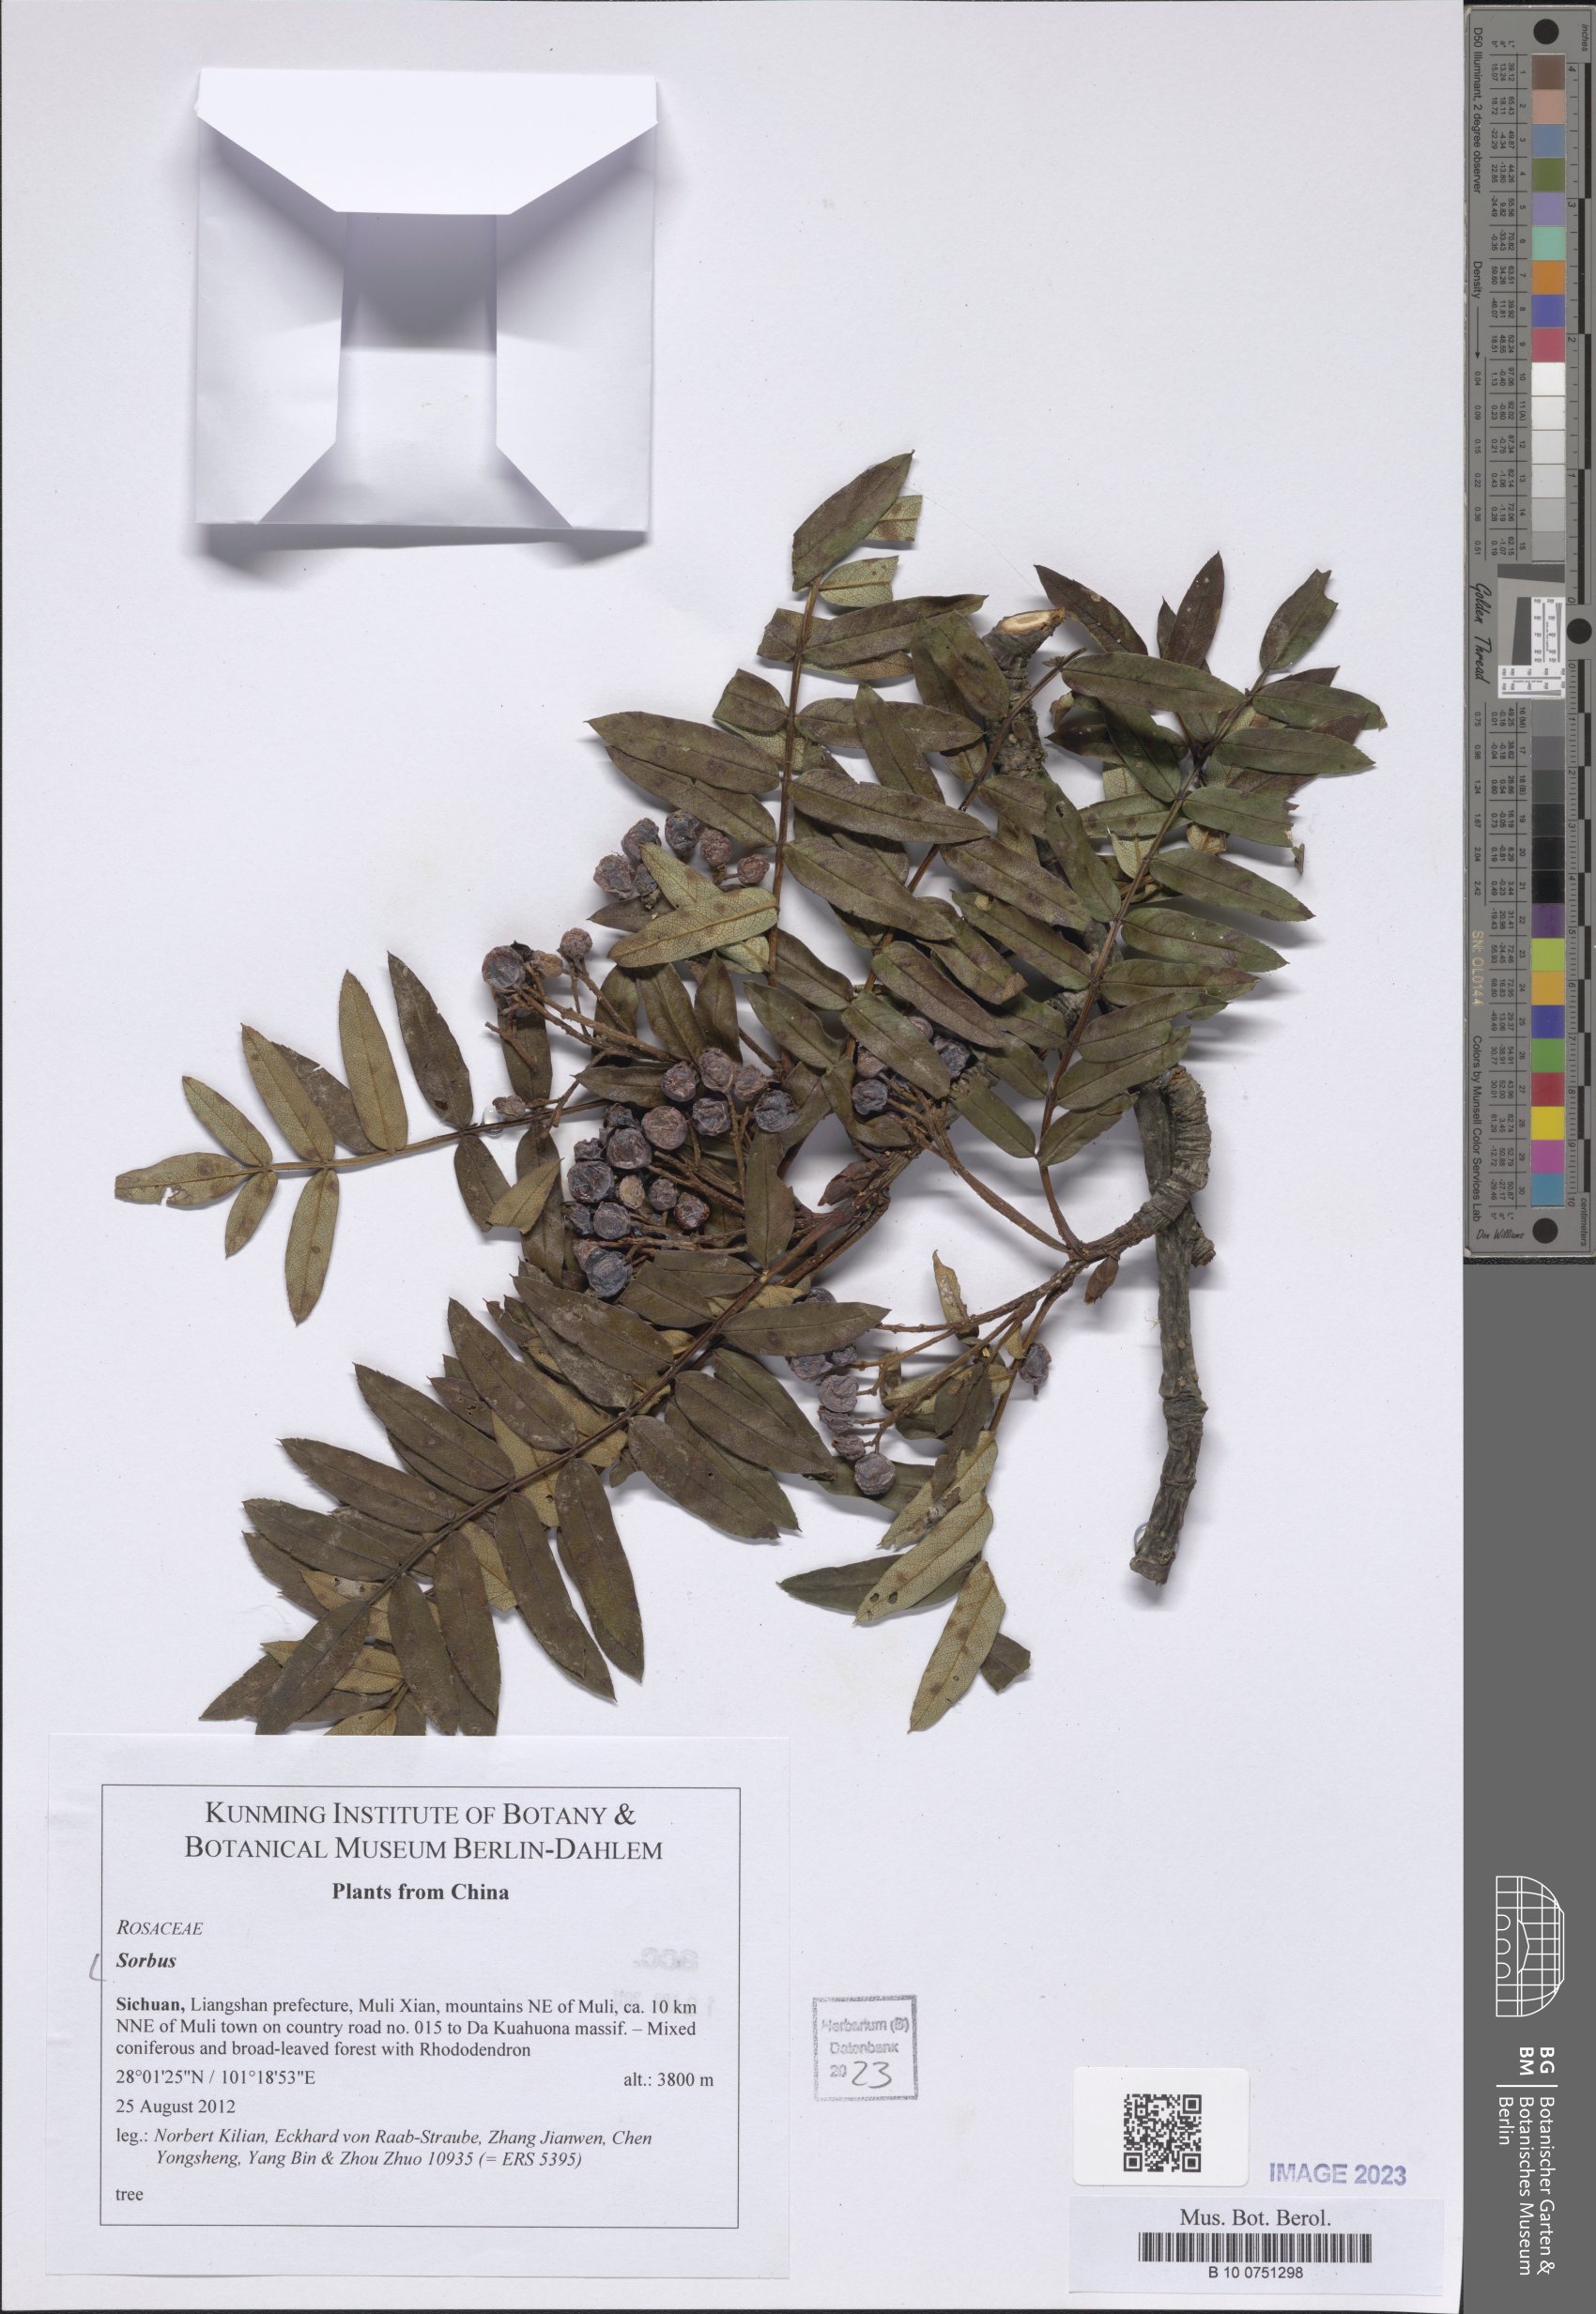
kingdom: Plantae
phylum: Tracheophyta
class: Magnoliopsida
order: Rosales
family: Rosaceae
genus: Sorbus
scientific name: Sorbus
